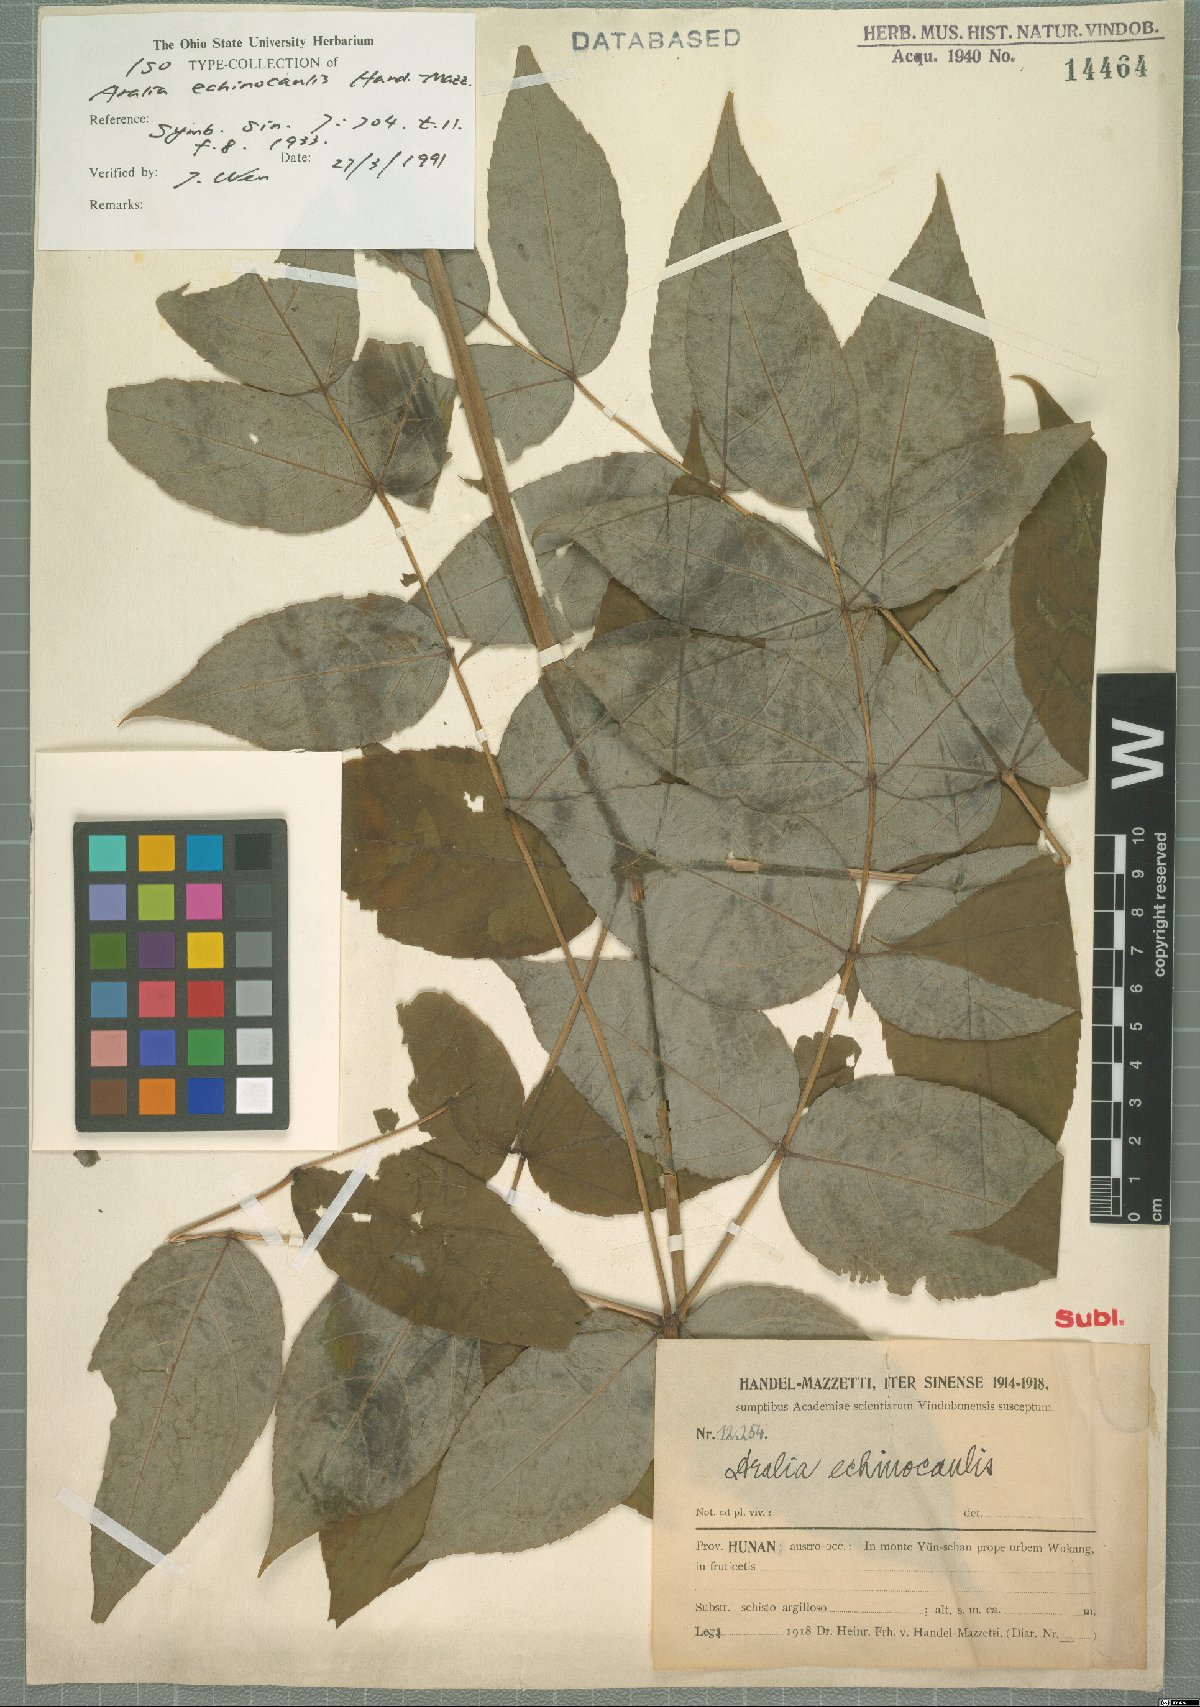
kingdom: Plantae
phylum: Tracheophyta
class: Magnoliopsida
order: Apiales
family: Araliaceae
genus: Aralia
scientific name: Aralia echinocaulis
